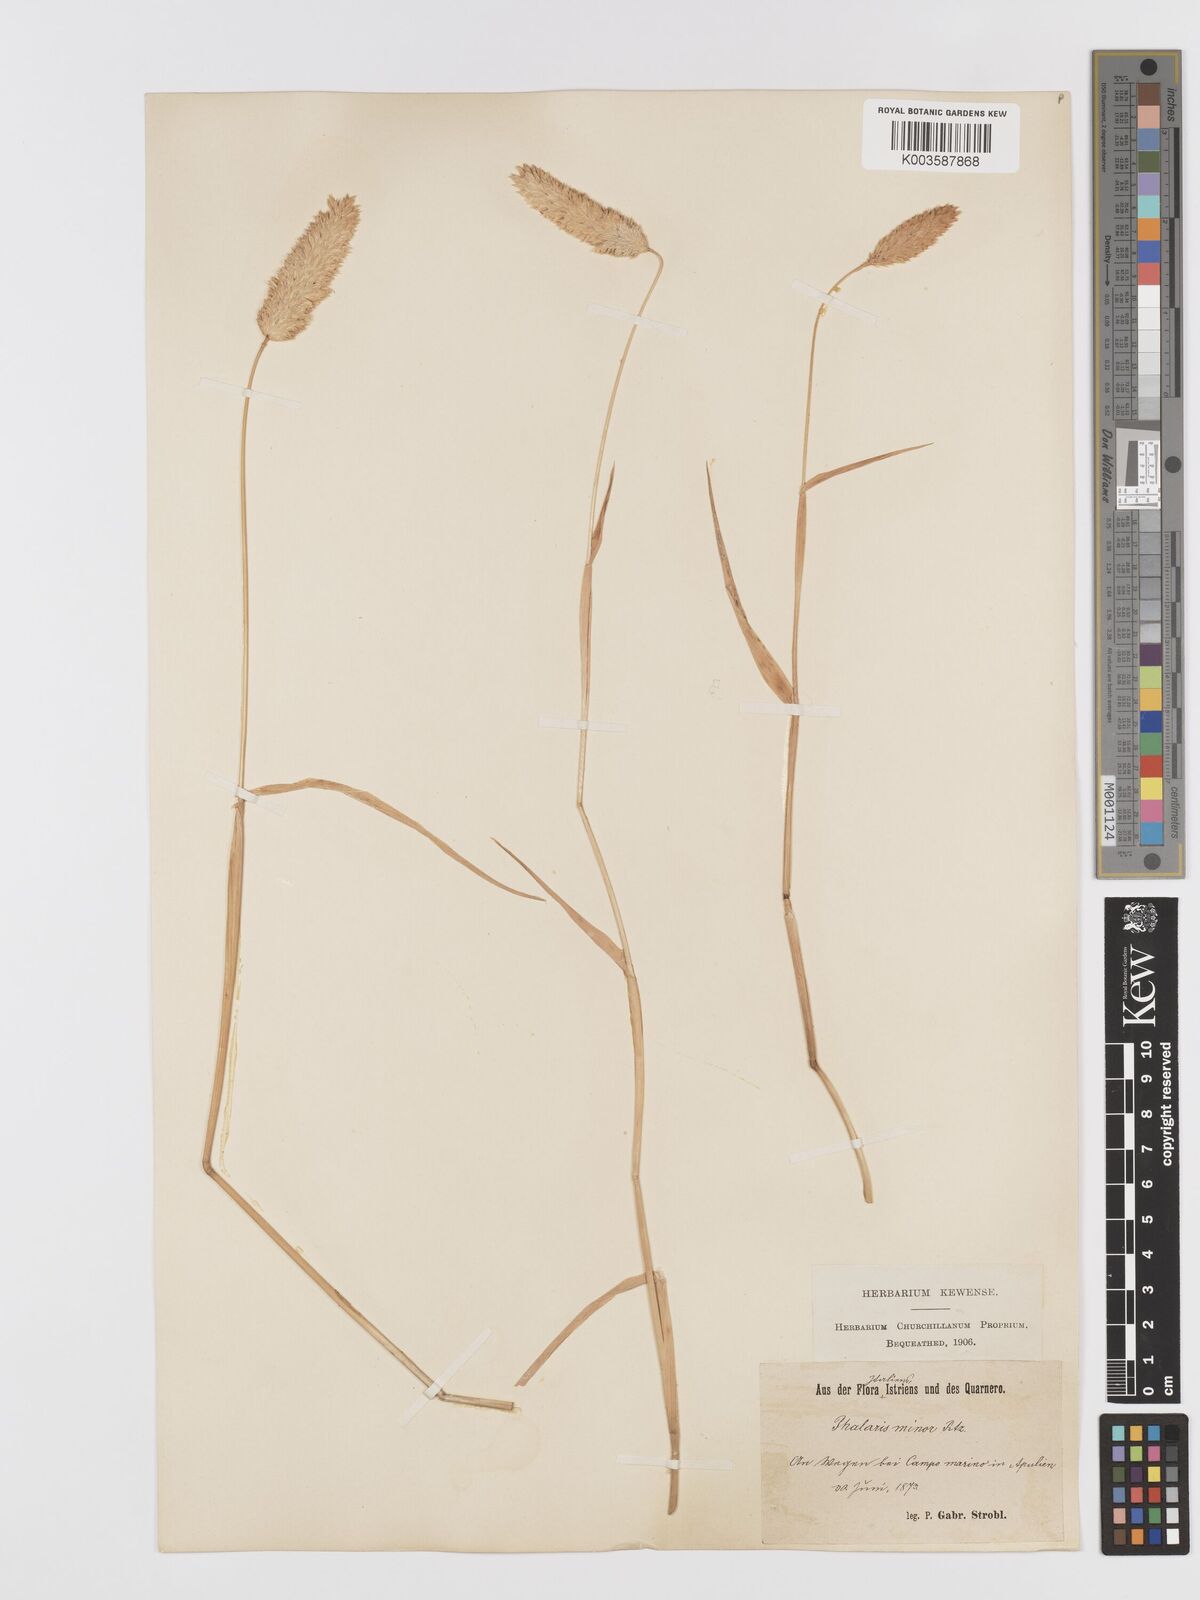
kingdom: Plantae
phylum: Tracheophyta
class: Liliopsida
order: Poales
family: Poaceae
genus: Phalaris
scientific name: Phalaris minor
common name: Littleseed canarygrass
